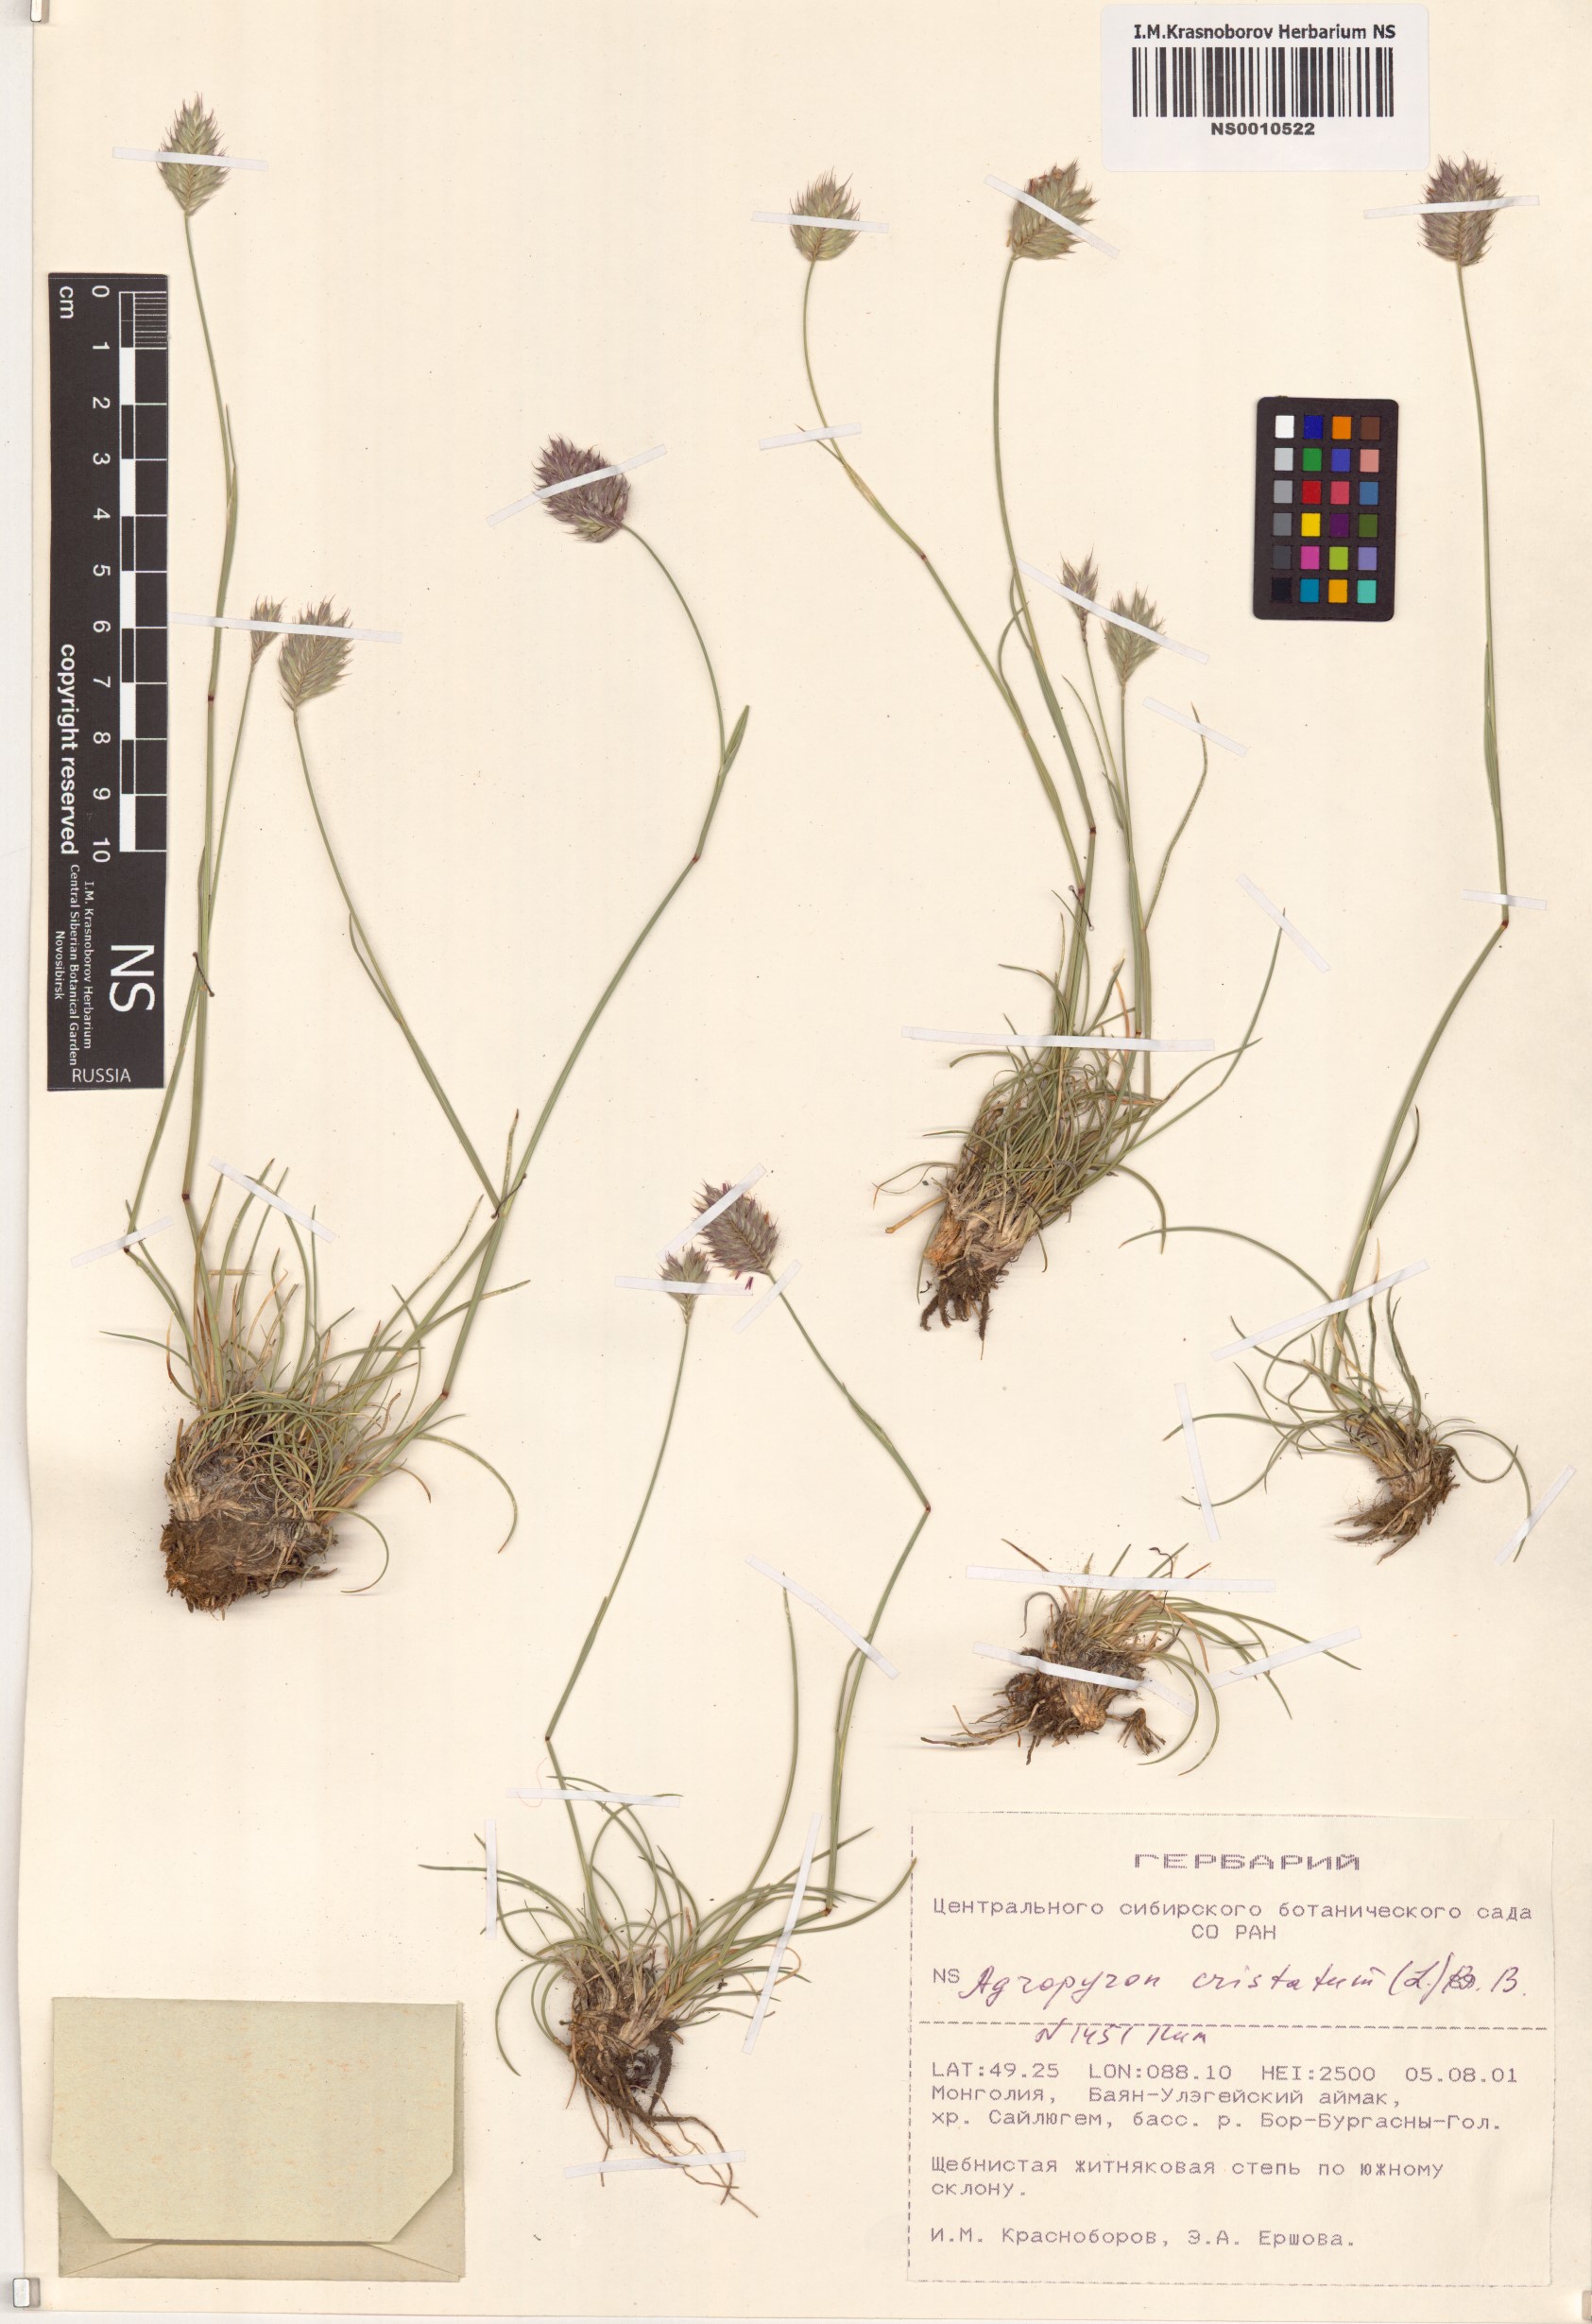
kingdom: Plantae
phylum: Tracheophyta
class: Liliopsida
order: Poales
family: Poaceae
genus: Agropyron
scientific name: Agropyron cristatum
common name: Crested wheatgrass
